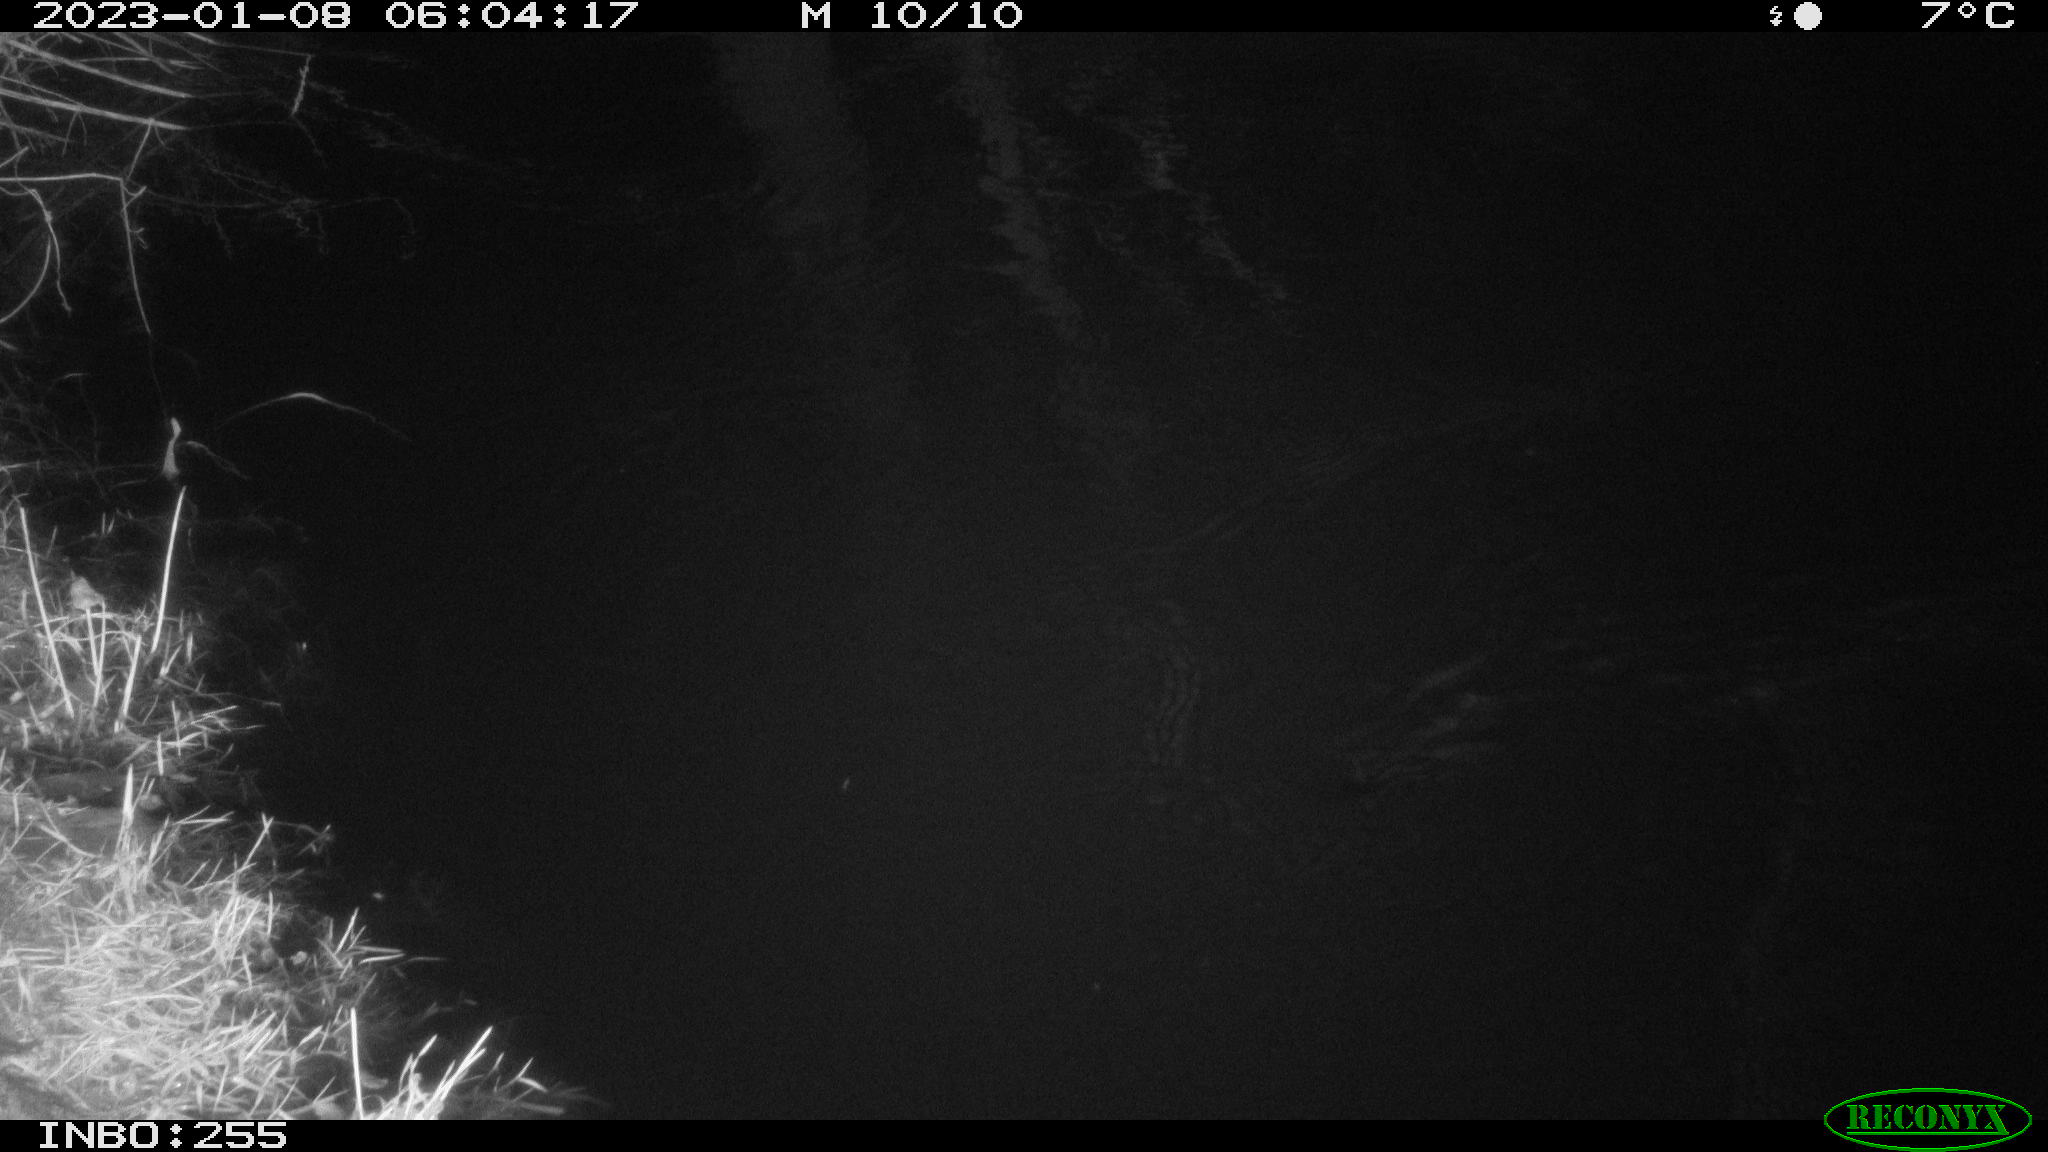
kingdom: Animalia
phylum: Chordata
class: Aves
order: Anseriformes
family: Anatidae
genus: Anas
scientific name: Anas
